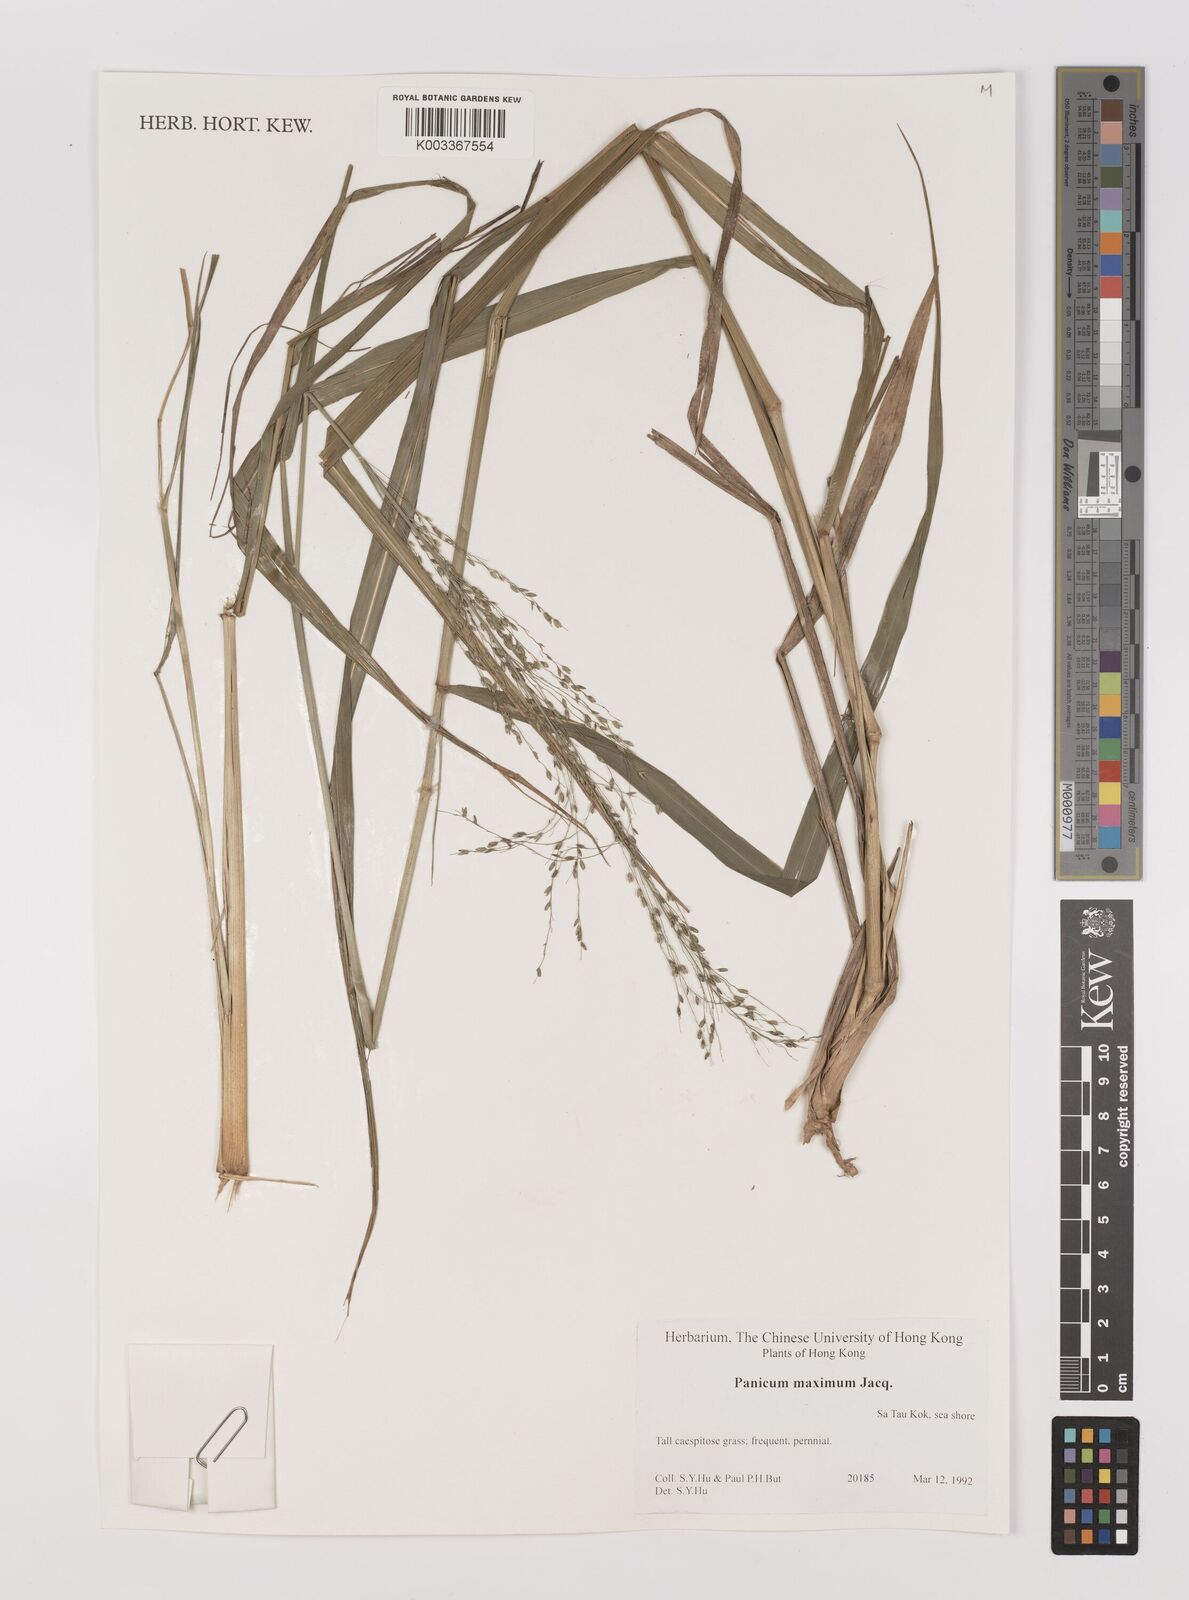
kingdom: Plantae
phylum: Tracheophyta
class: Liliopsida
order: Poales
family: Poaceae
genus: Megathyrsus
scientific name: Megathyrsus maximus
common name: Guineagrass
